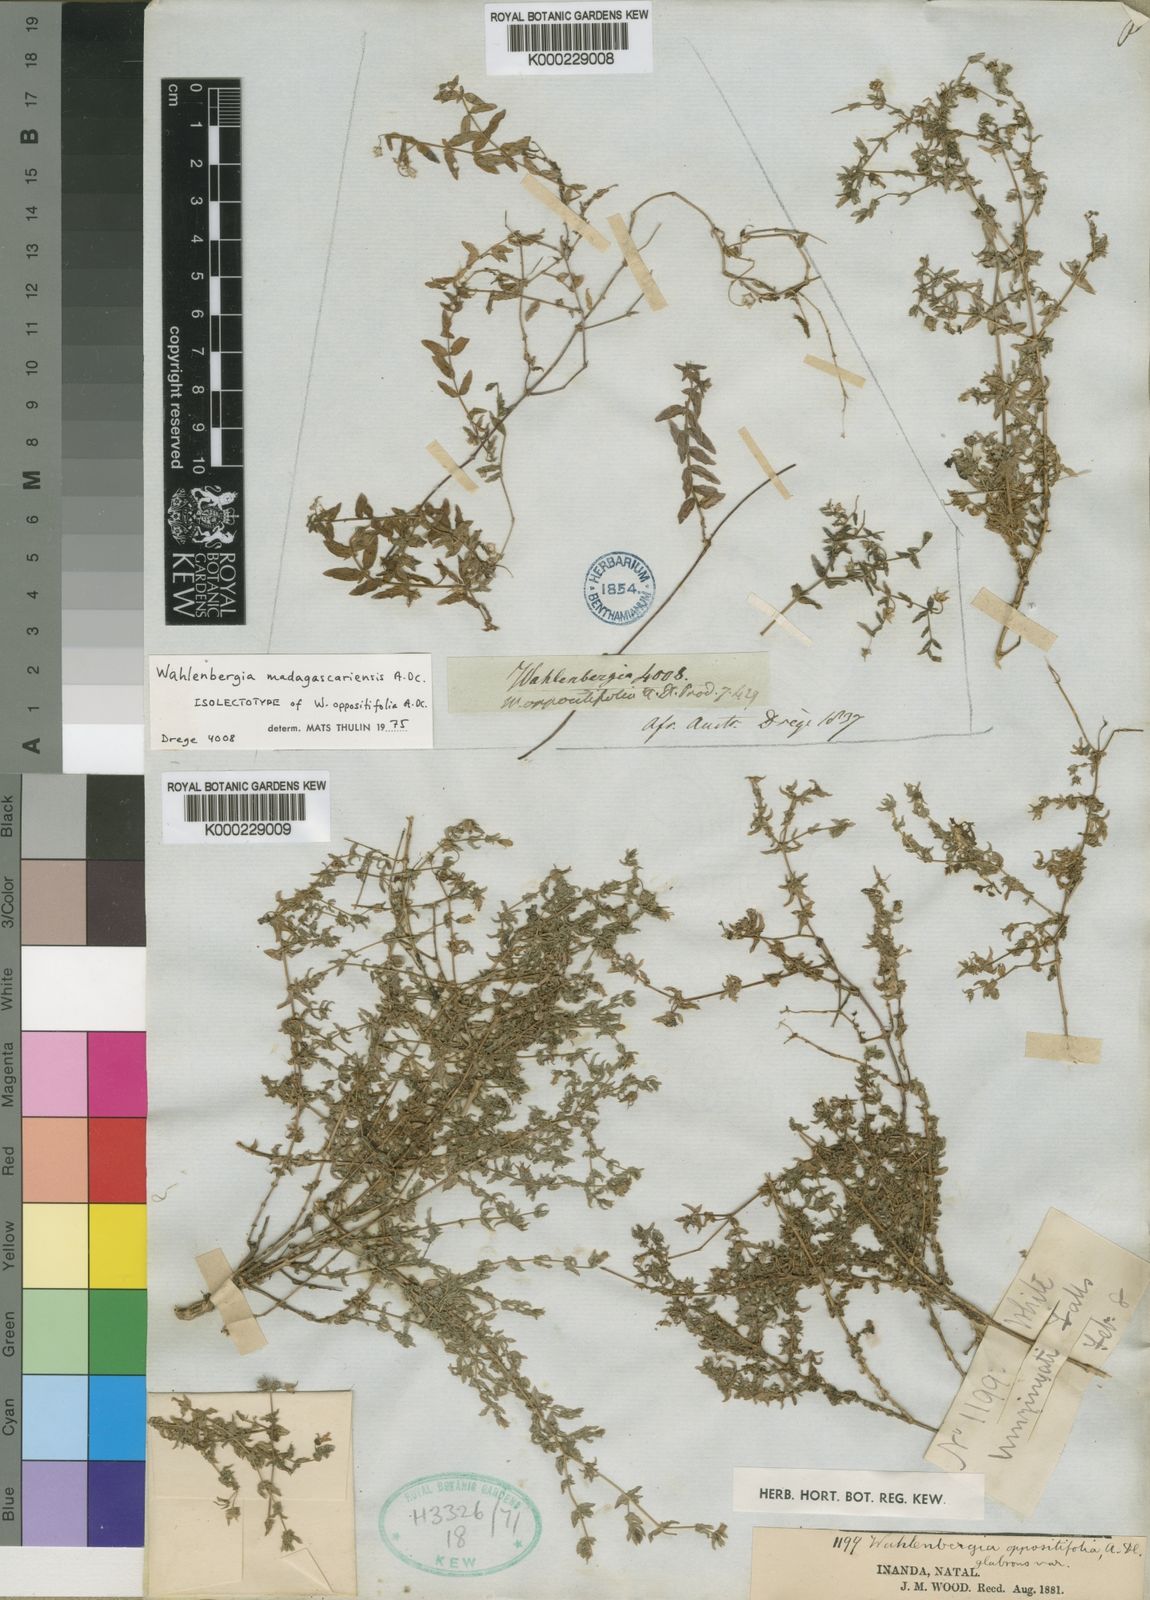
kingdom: Plantae
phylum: Tracheophyta
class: Magnoliopsida
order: Asterales
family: Campanulaceae
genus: Wahlenbergia
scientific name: Wahlenbergia madagascariensis
